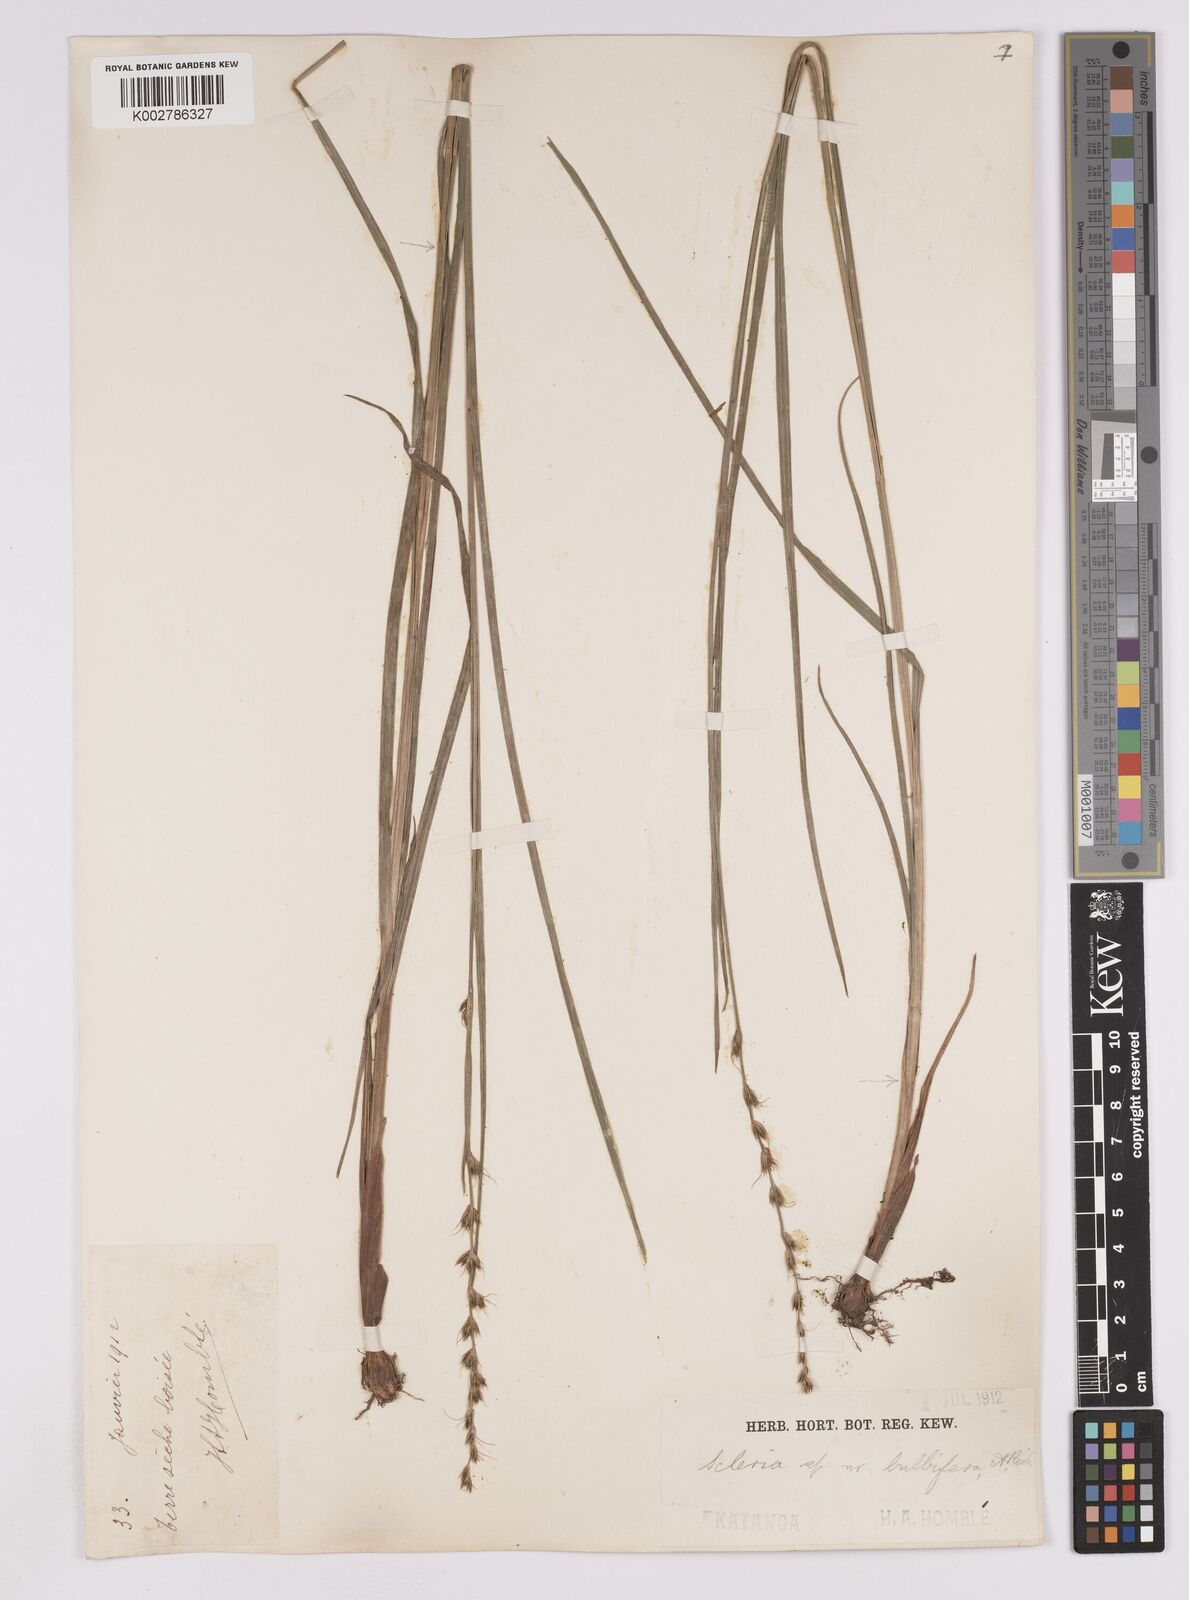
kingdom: Plantae
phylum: Tracheophyta
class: Liliopsida
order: Poales
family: Cyperaceae
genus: Scleria
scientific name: Scleria bulbifera
